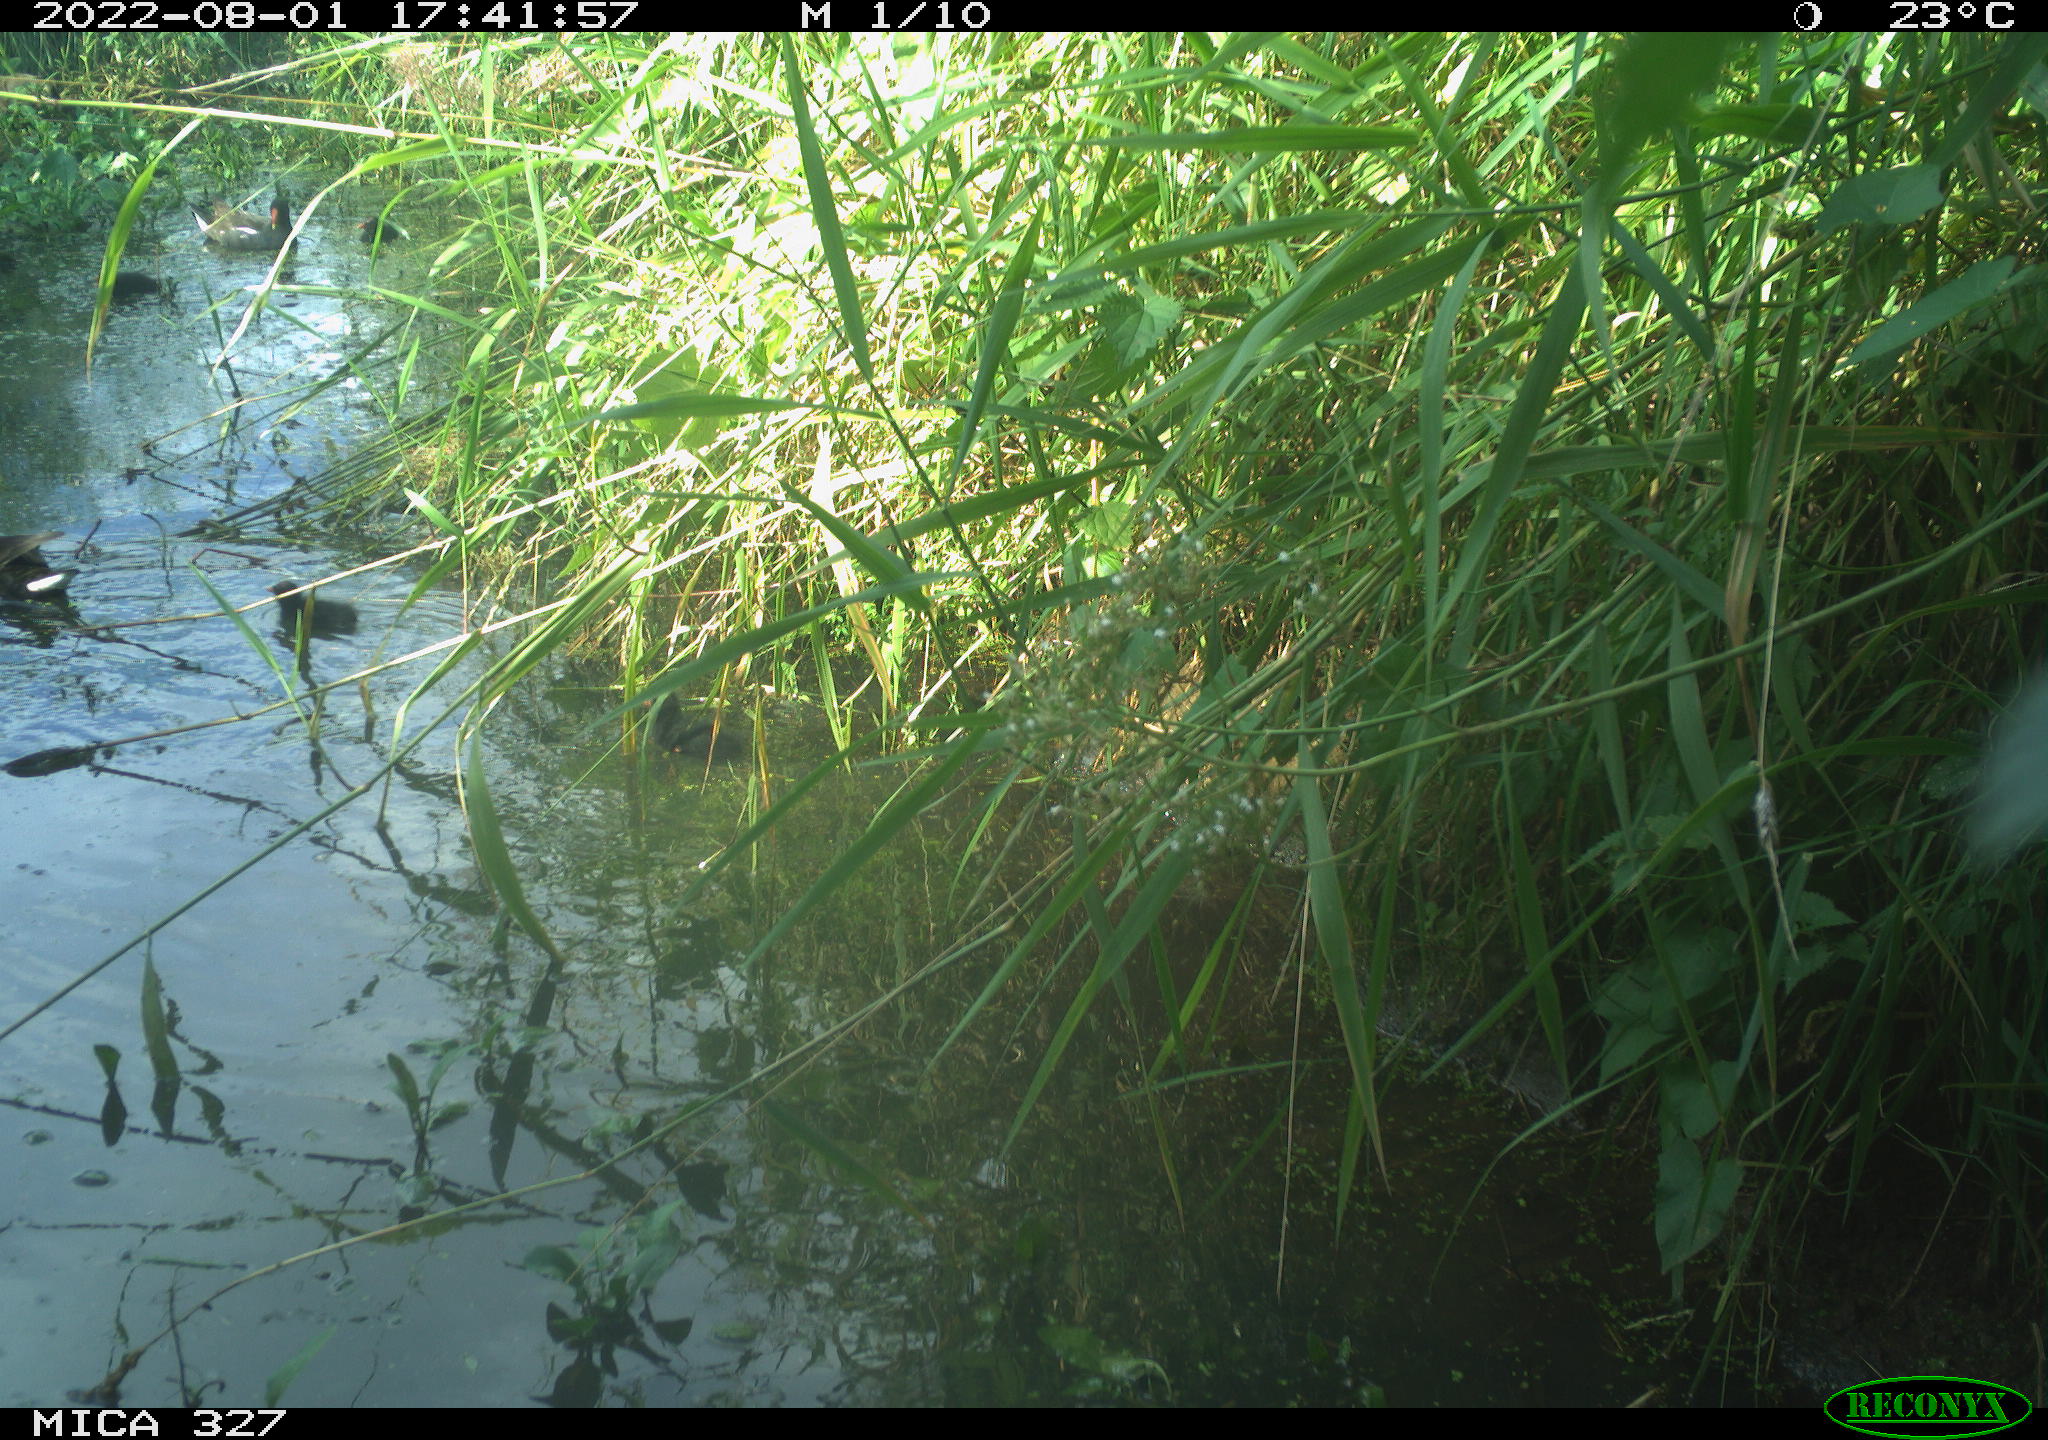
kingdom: Animalia
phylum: Chordata
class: Aves
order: Gruiformes
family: Rallidae
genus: Gallinula
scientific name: Gallinula chloropus
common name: Common moorhen
